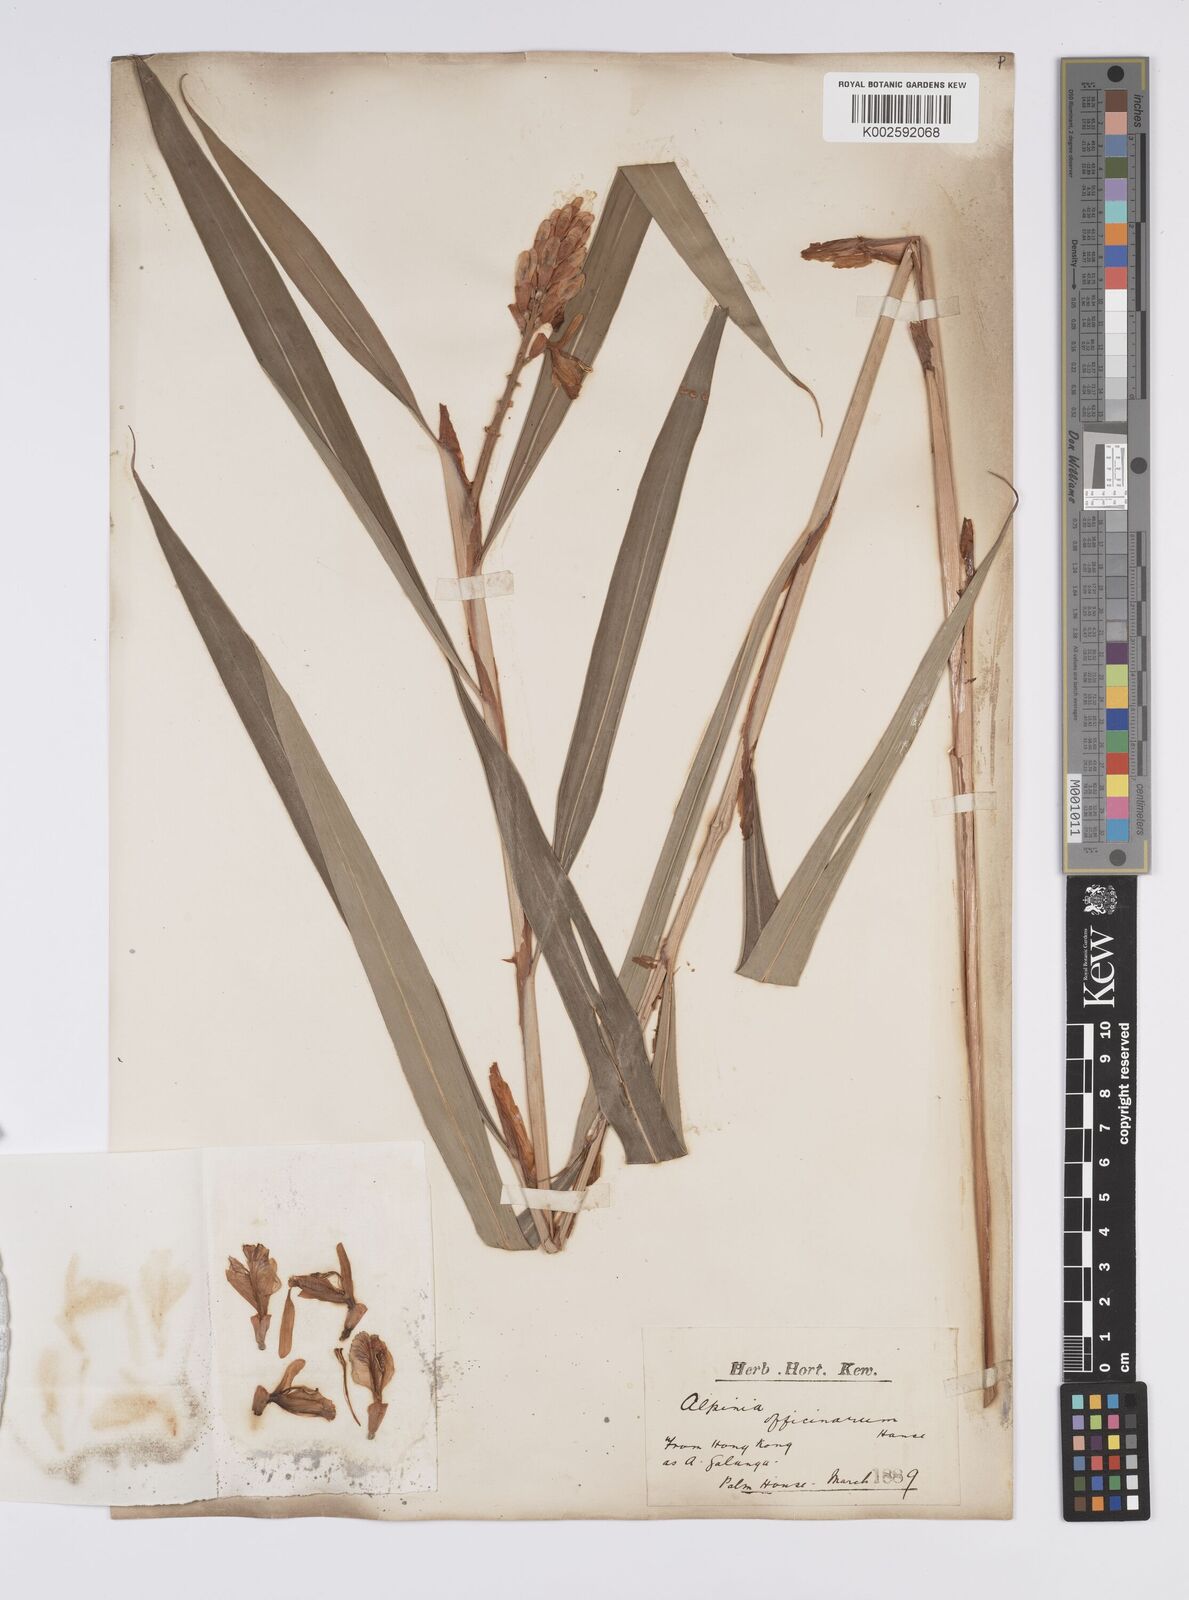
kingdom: Plantae
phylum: Tracheophyta
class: Liliopsida
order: Zingiberales
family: Zingiberaceae
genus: Alpinia
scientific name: Alpinia officinarum
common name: Chinese-ginger
